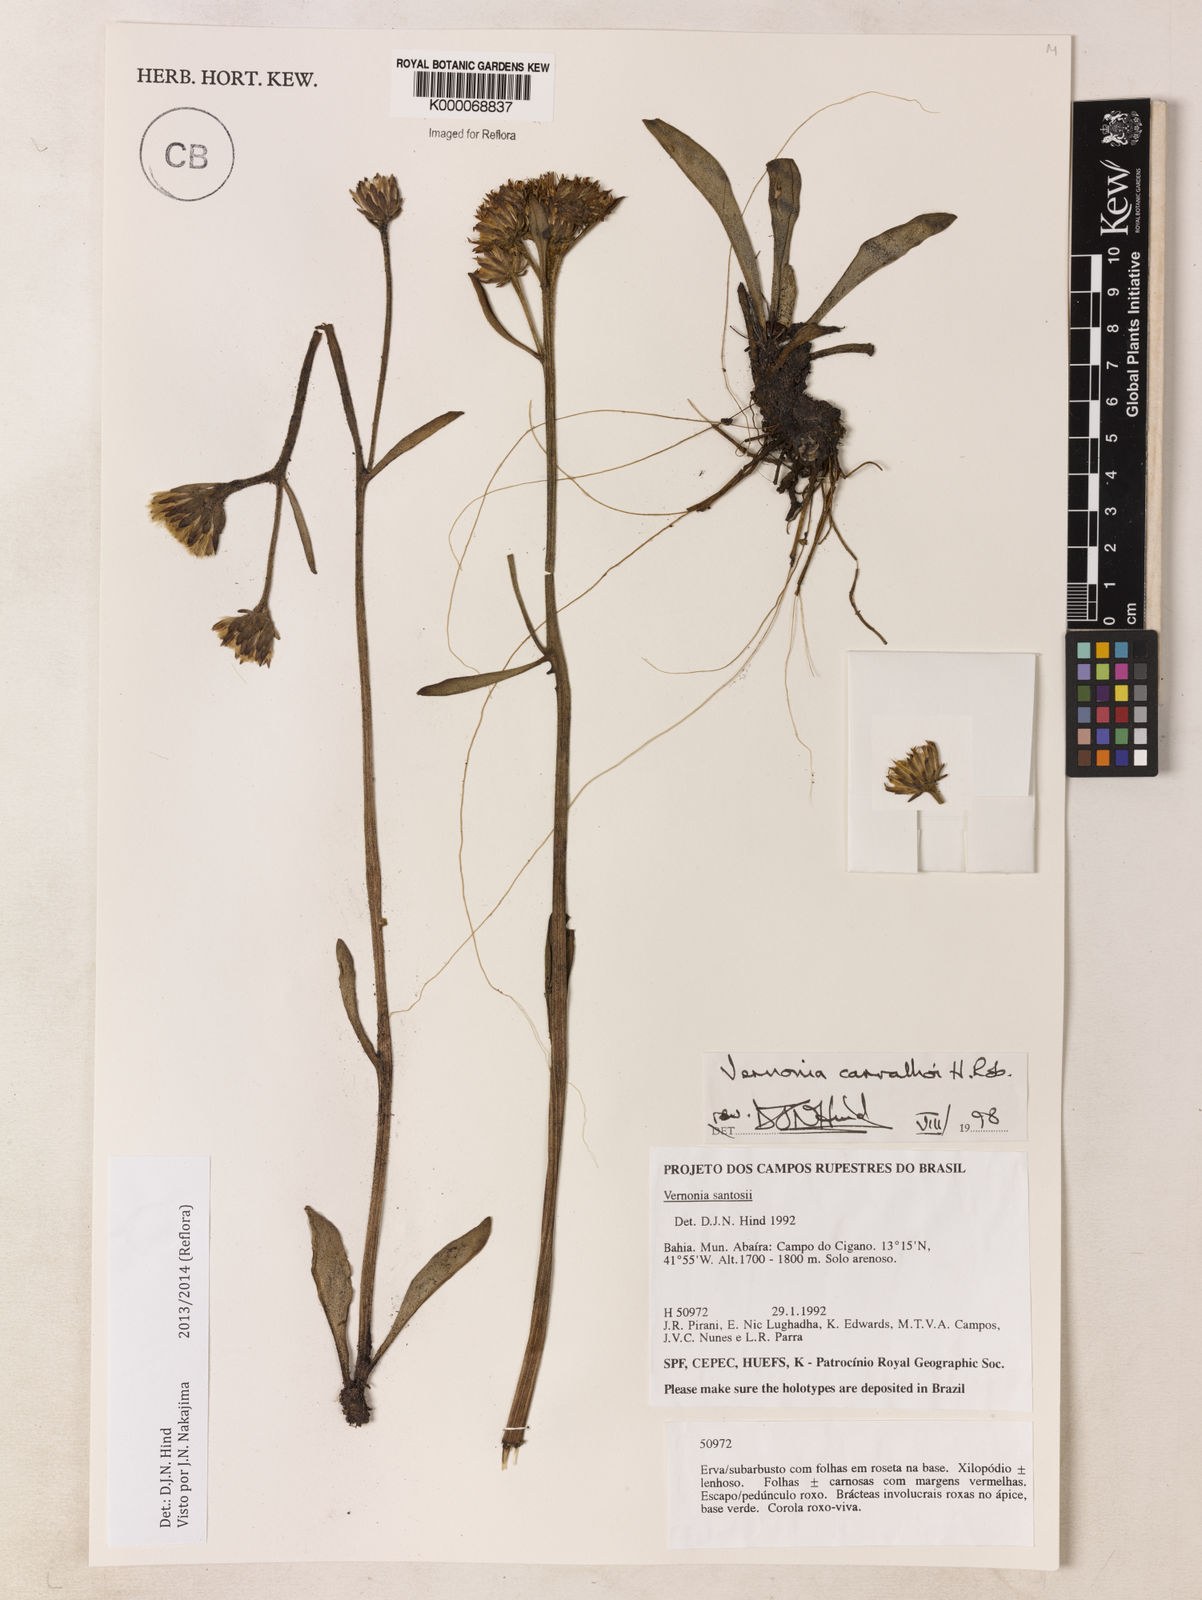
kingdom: Plantae
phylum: Tracheophyta
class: Magnoliopsida
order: Asterales
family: Asteraceae
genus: Lessingianthus
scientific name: Lessingianthus carvalhoi
